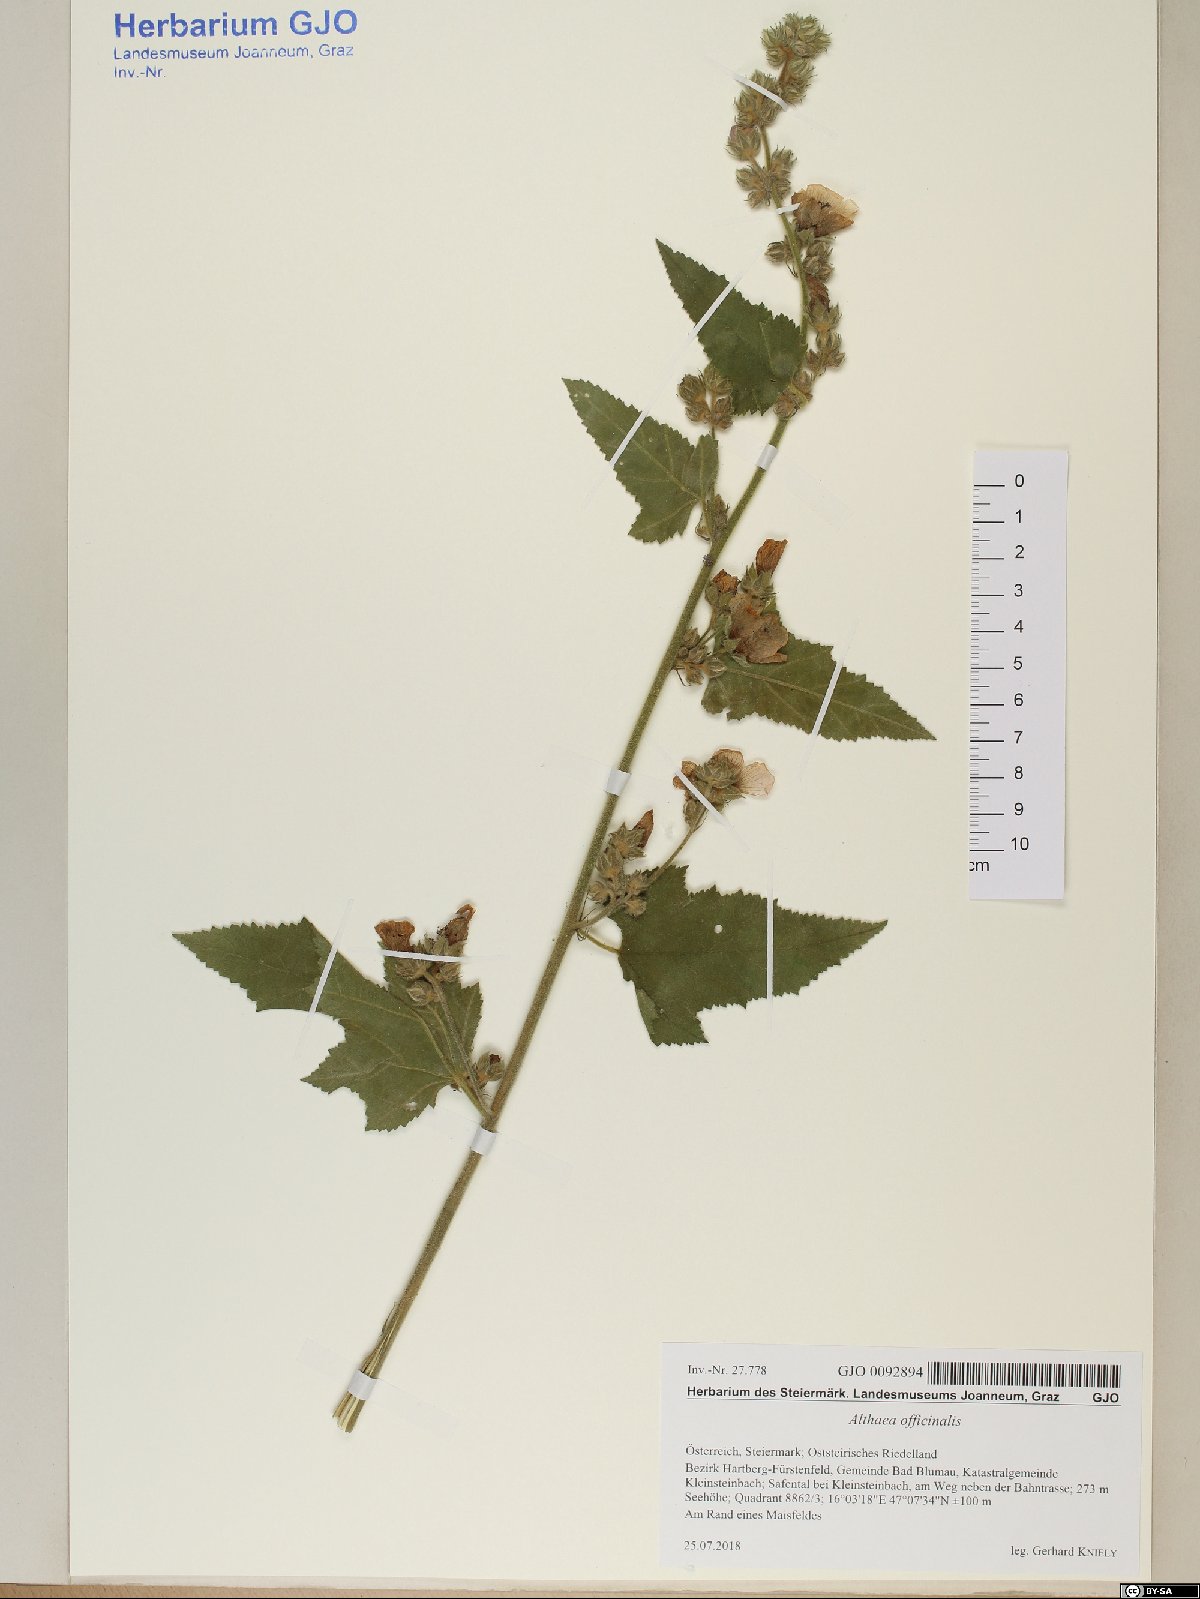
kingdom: Plantae
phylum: Tracheophyta
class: Magnoliopsida
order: Malvales
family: Malvaceae
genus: Althaea
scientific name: Althaea officinalis
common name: Marsh-mallow
